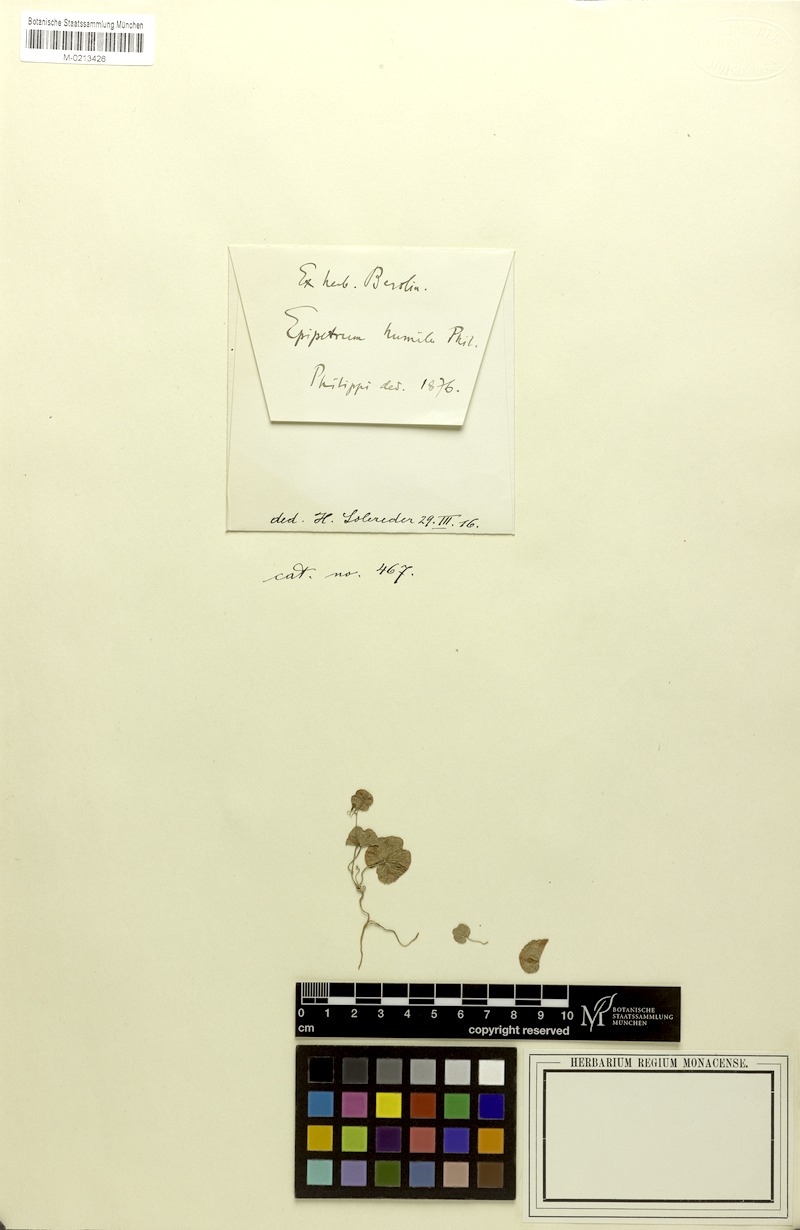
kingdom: Plantae
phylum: Tracheophyta
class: Liliopsida
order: Dioscoreales
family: Dioscoreaceae
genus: Dioscorea
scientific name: Dioscorea humilis
